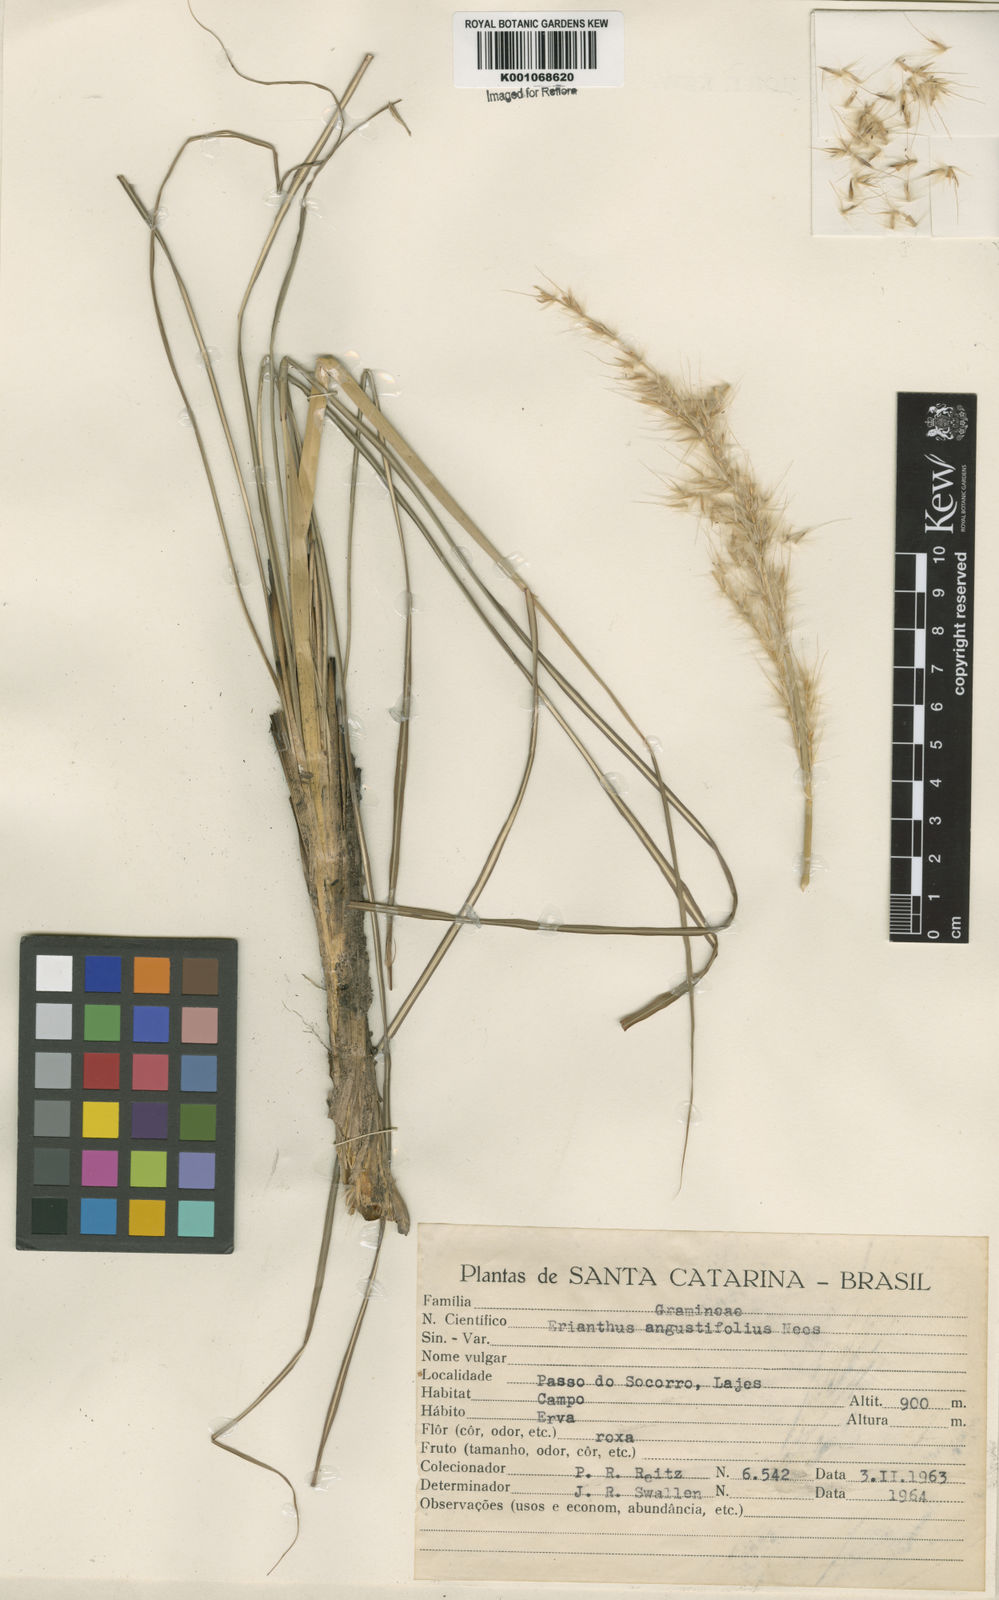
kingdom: Plantae
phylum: Tracheophyta
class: Liliopsida
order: Poales
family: Poaceae
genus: Saccharum
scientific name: Saccharum angustifolium
